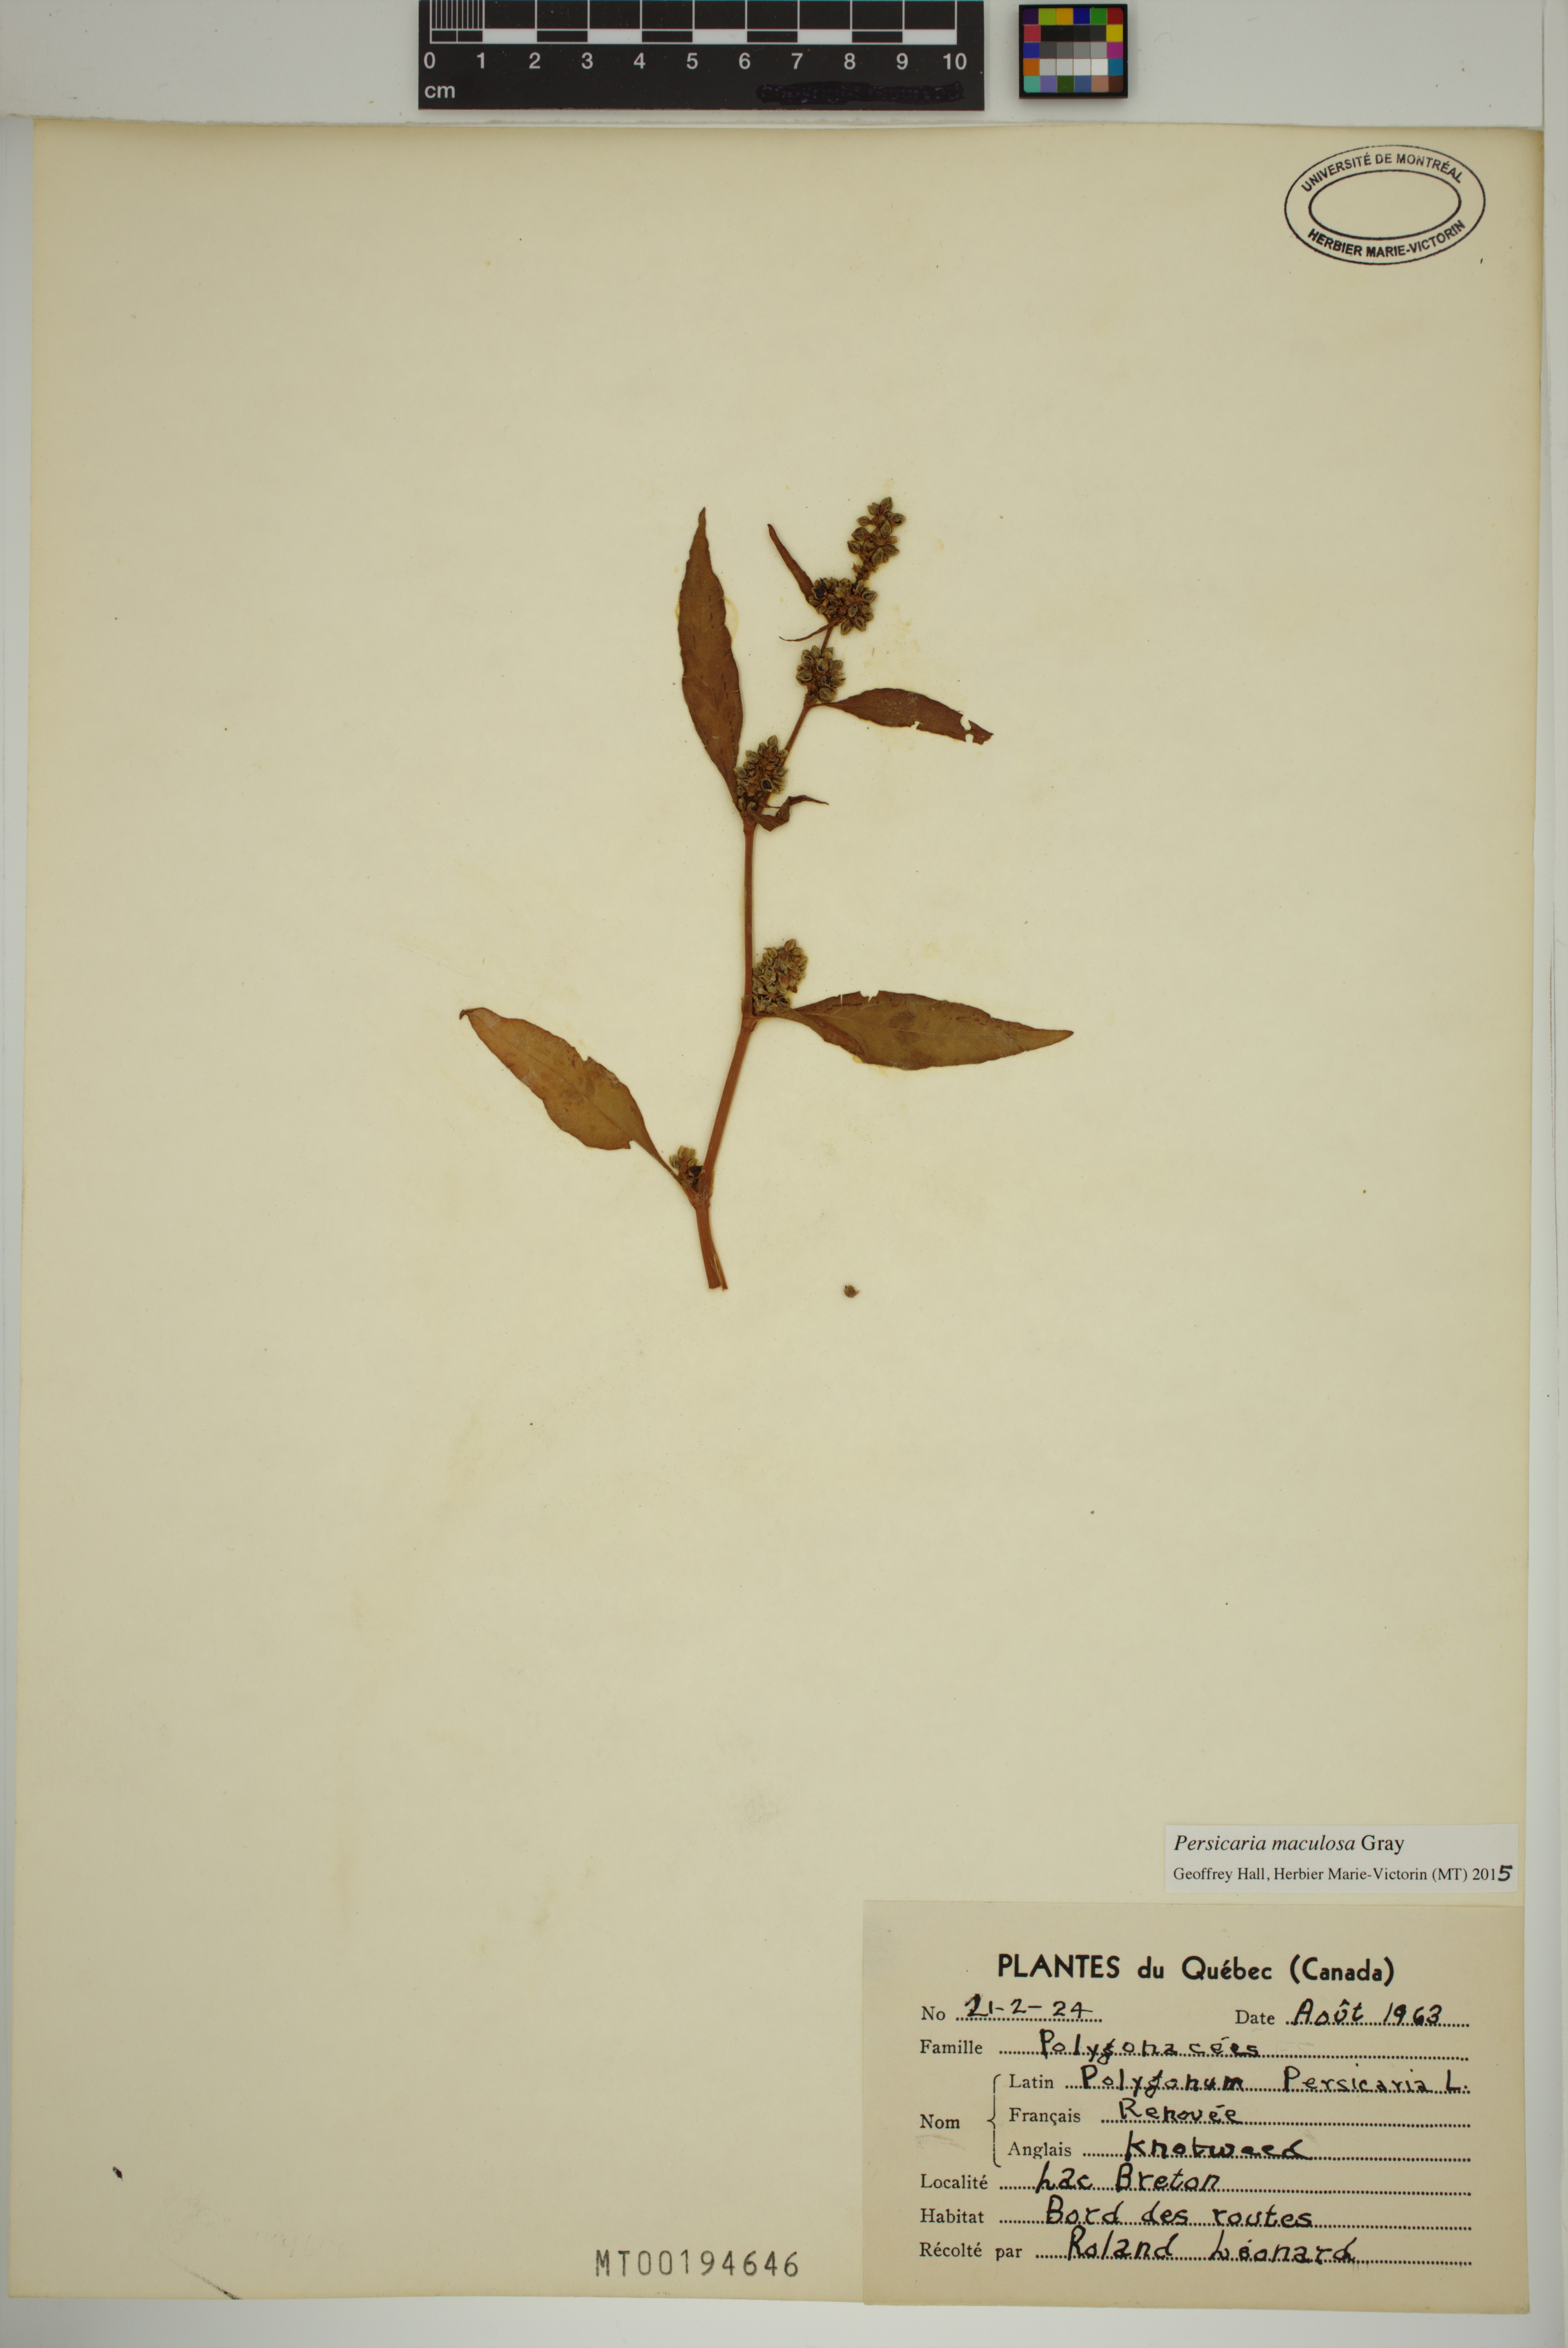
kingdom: Plantae
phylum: Tracheophyta
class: Magnoliopsida
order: Caryophyllales
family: Polygonaceae
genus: Persicaria
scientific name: Persicaria maculosa
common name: Redshank
